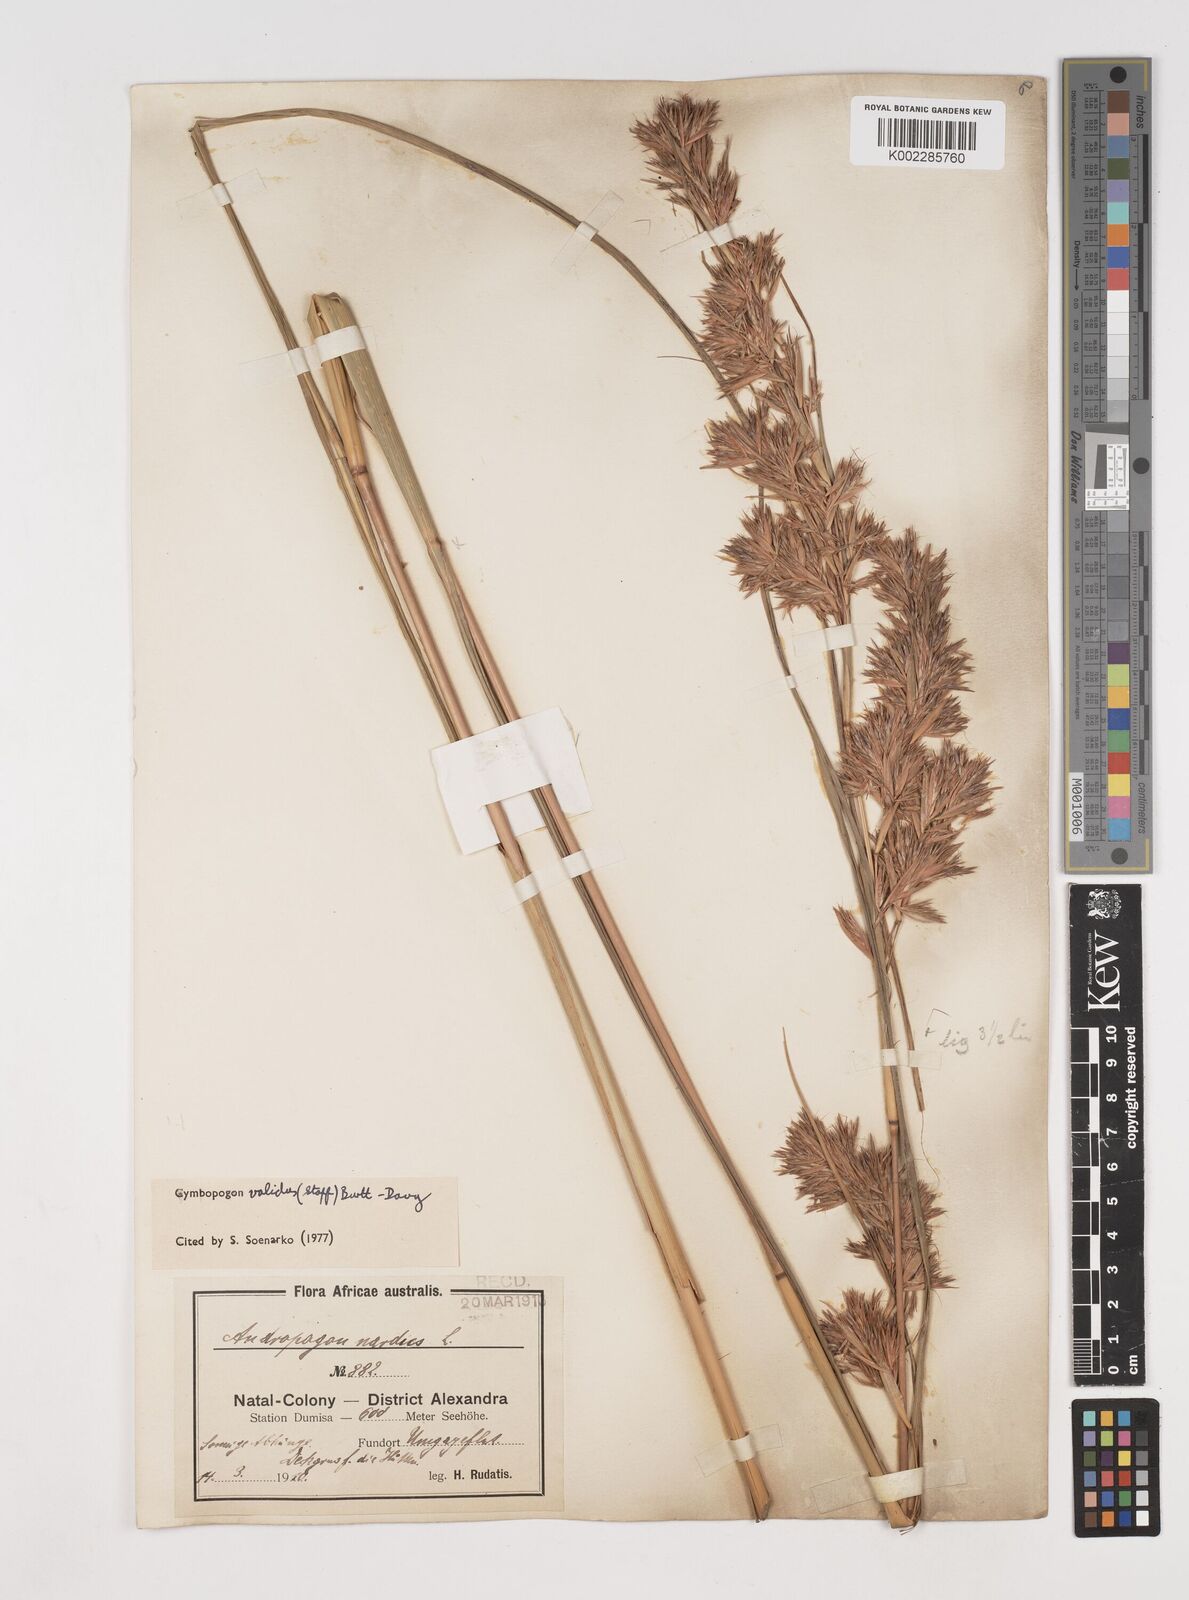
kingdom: Plantae
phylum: Tracheophyta
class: Liliopsida
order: Poales
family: Poaceae
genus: Cymbopogon
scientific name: Cymbopogon nardus
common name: Giant turpentine grass
